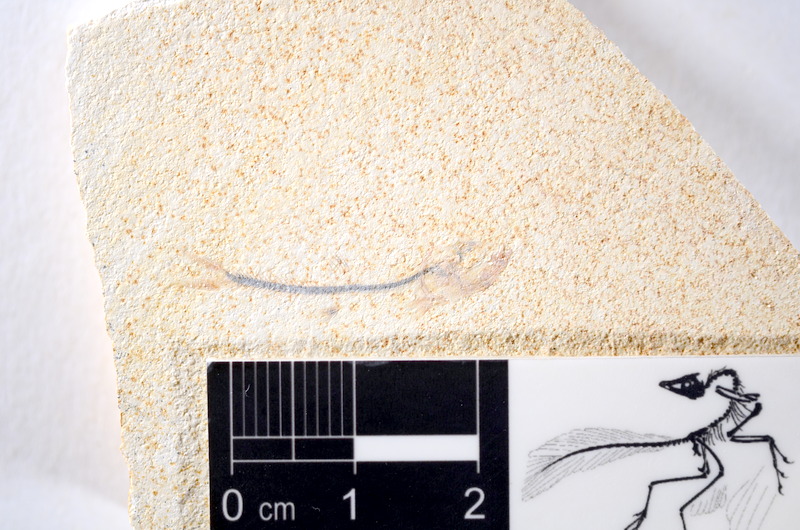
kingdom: Animalia
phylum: Chordata
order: Salmoniformes
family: Orthogonikleithridae
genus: Orthogonikleithrus
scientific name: Orthogonikleithrus hoelli
